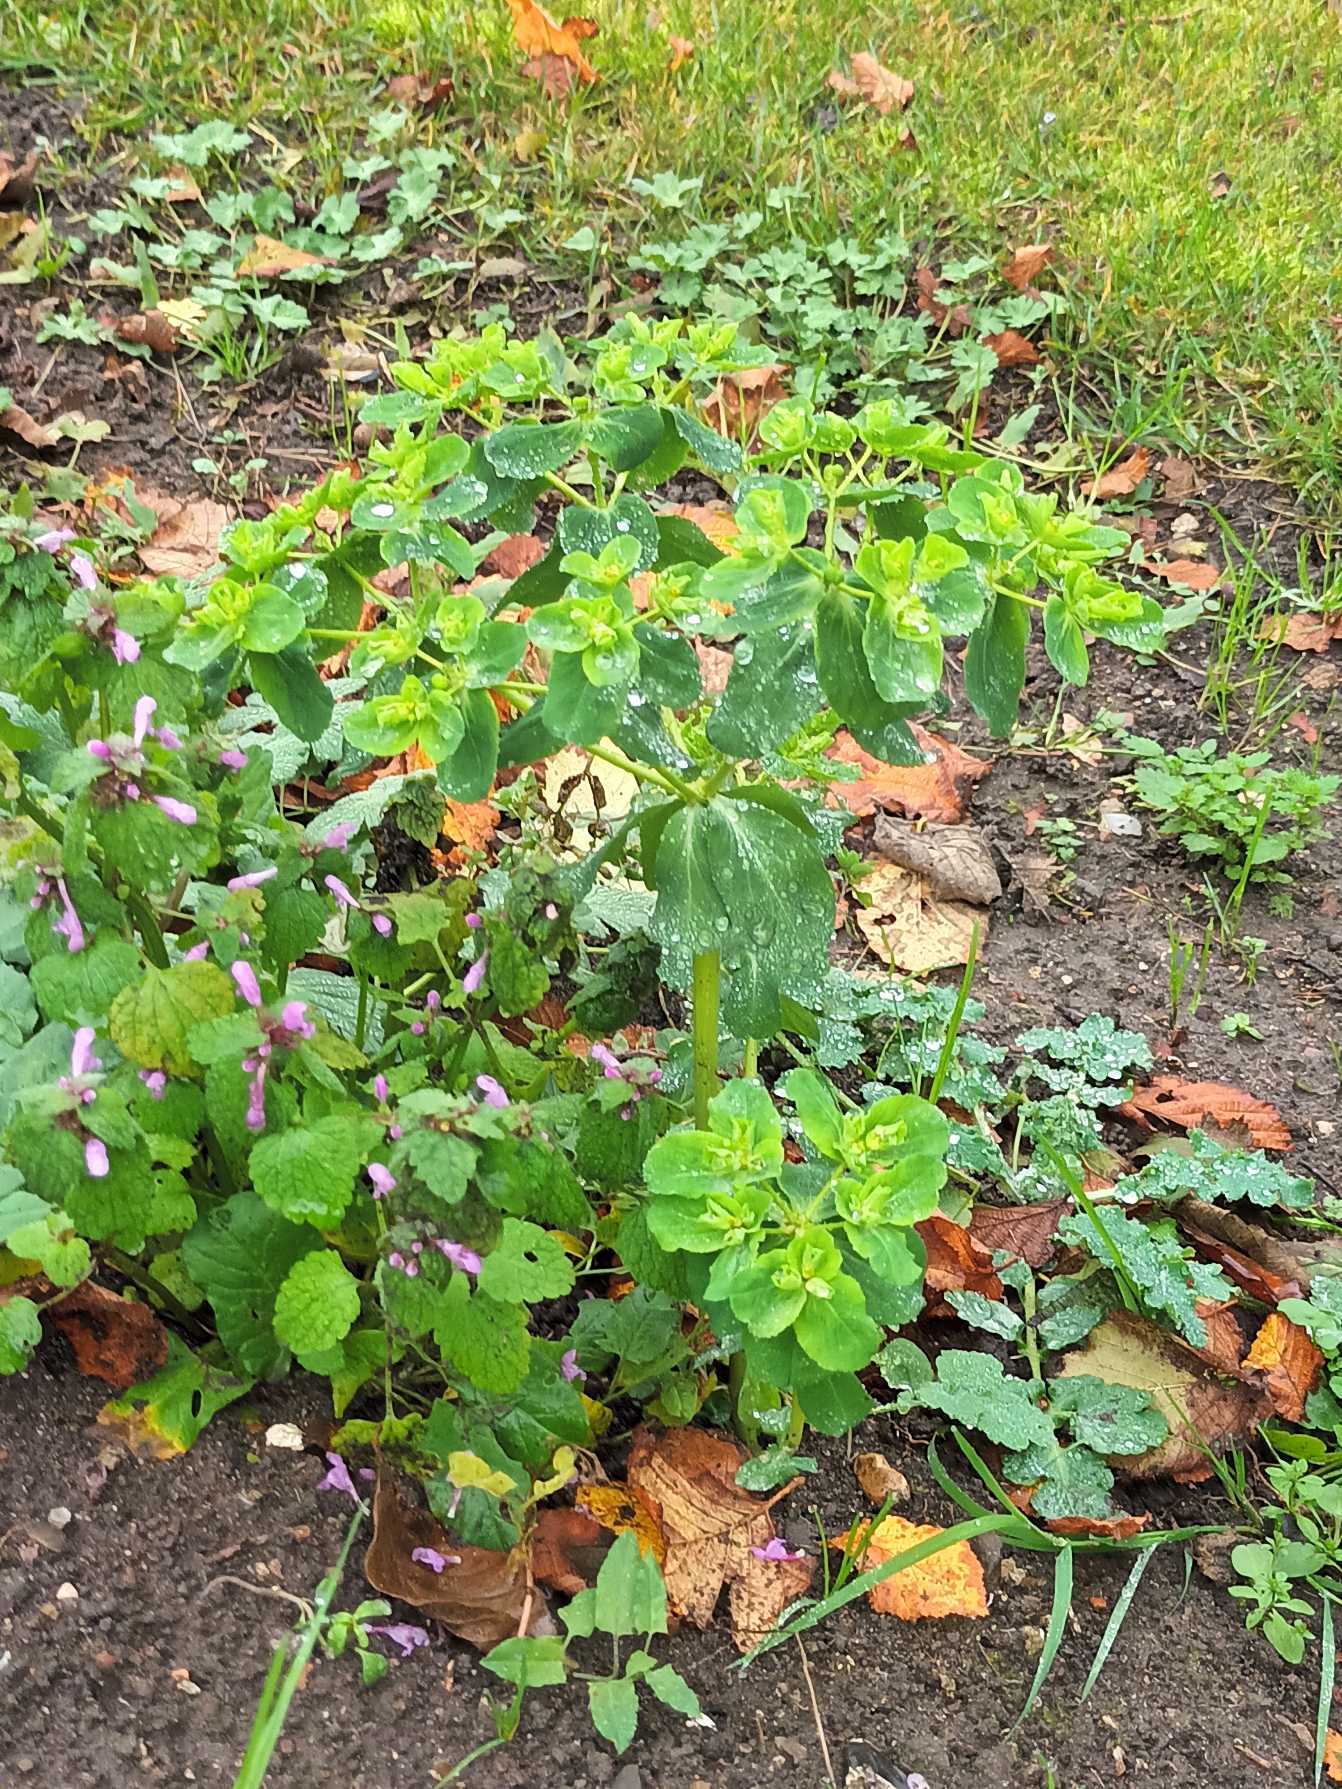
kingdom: Plantae
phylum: Tracheophyta
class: Magnoliopsida
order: Malpighiales
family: Euphorbiaceae
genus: Euphorbia
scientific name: Euphorbia helioscopia
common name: Skærm-vortemælk
